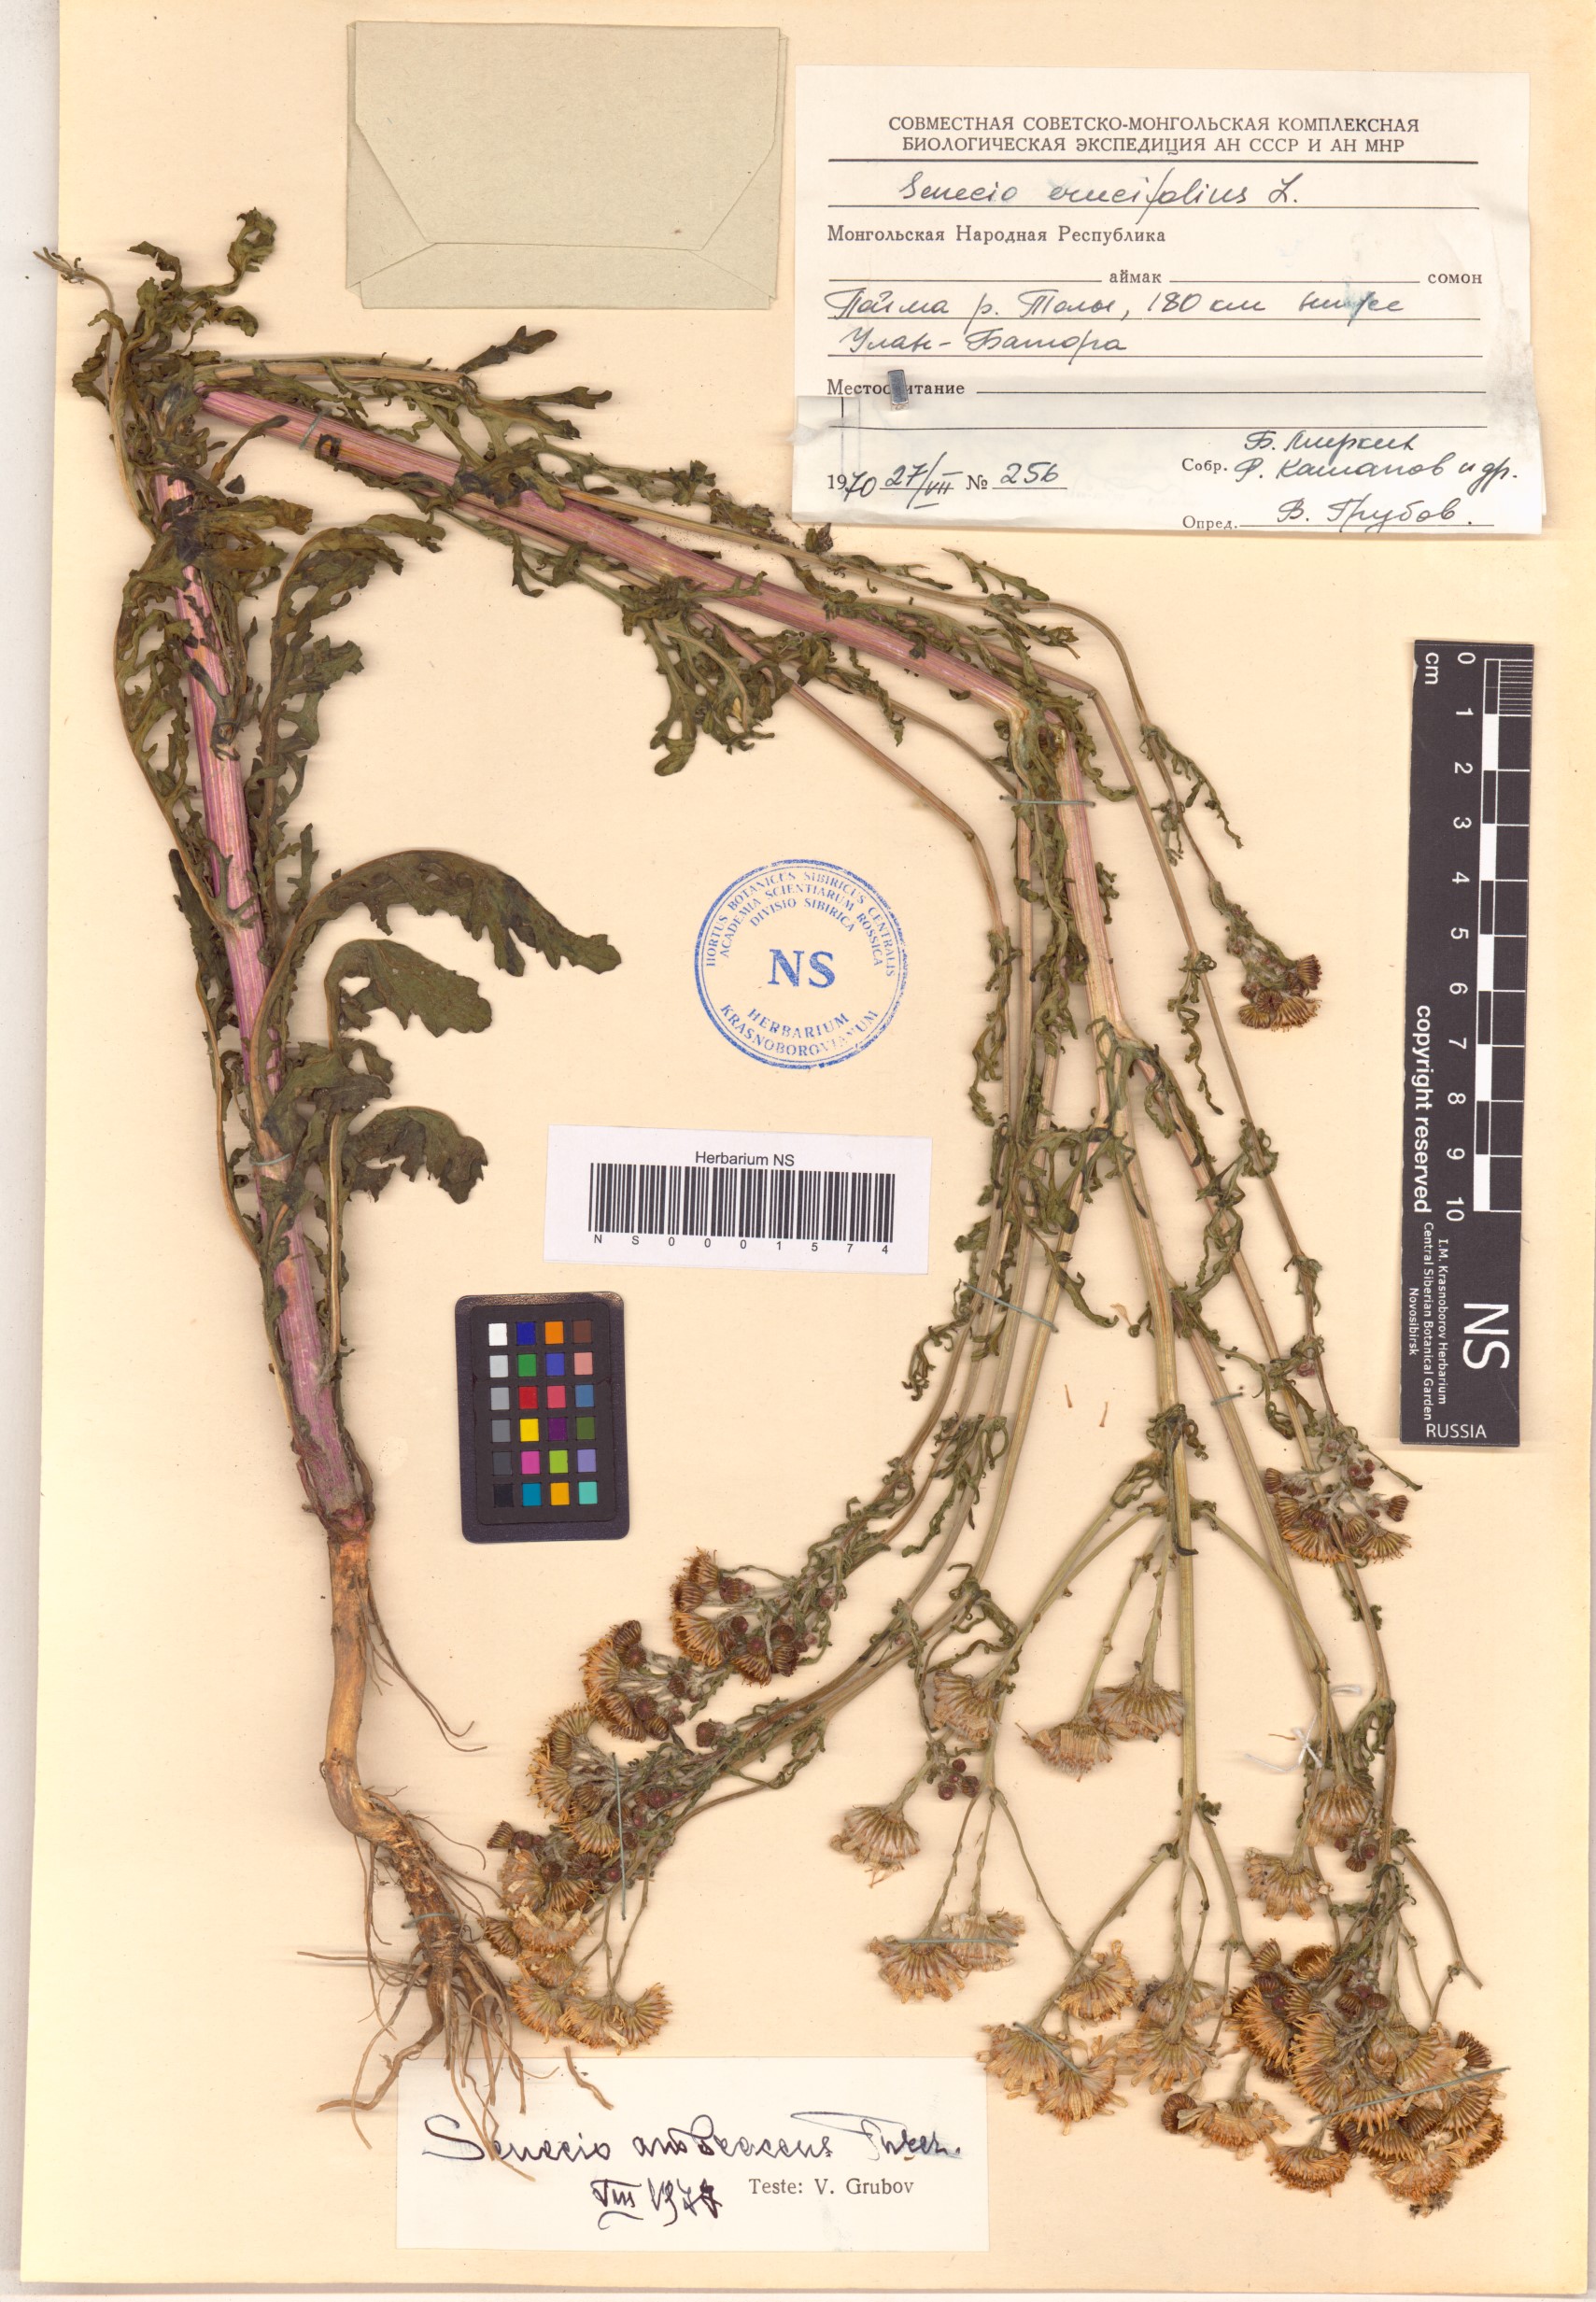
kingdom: Plantae
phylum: Tracheophyta
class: Magnoliopsida
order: Asterales
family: Asteraceae
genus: Jacobaea
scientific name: Jacobaea erucifolia
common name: Hoary ragwort
